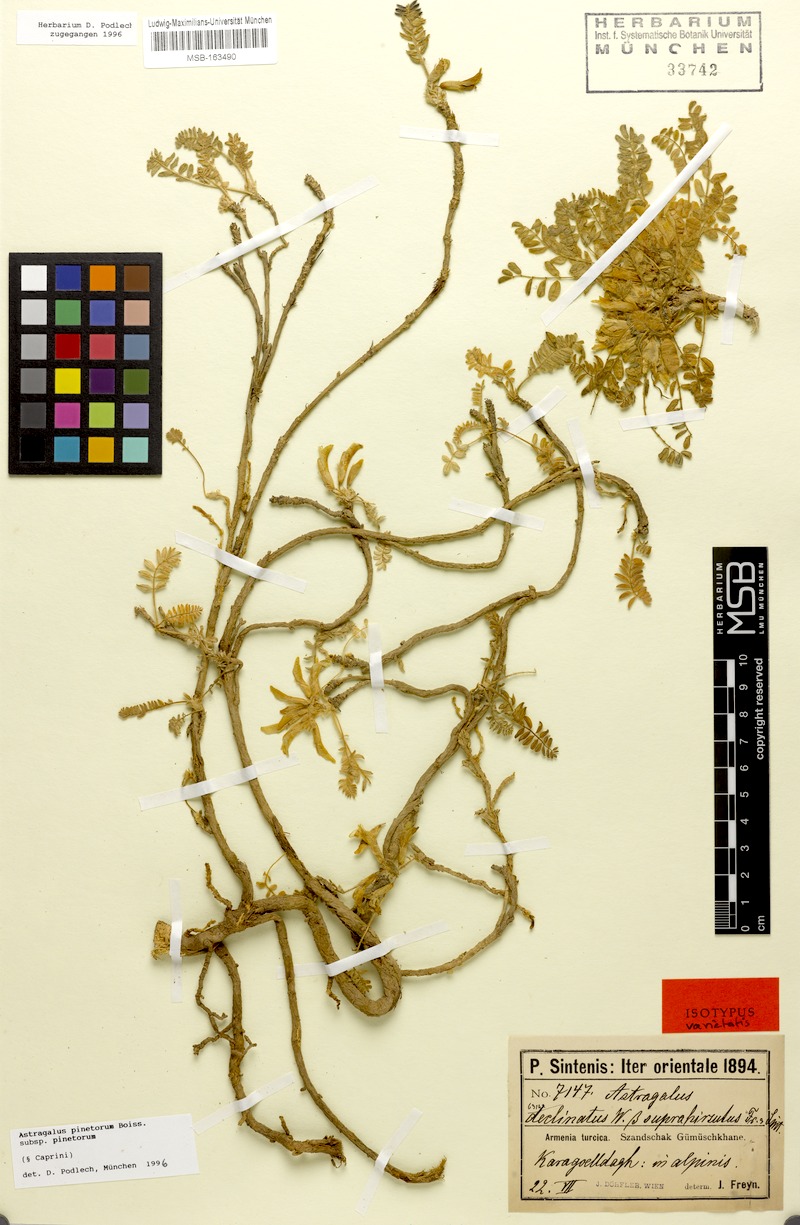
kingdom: Plantae
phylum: Tracheophyta
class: Magnoliopsida
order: Fabales
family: Fabaceae
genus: Astragalus
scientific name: Astragalus pinetorum
